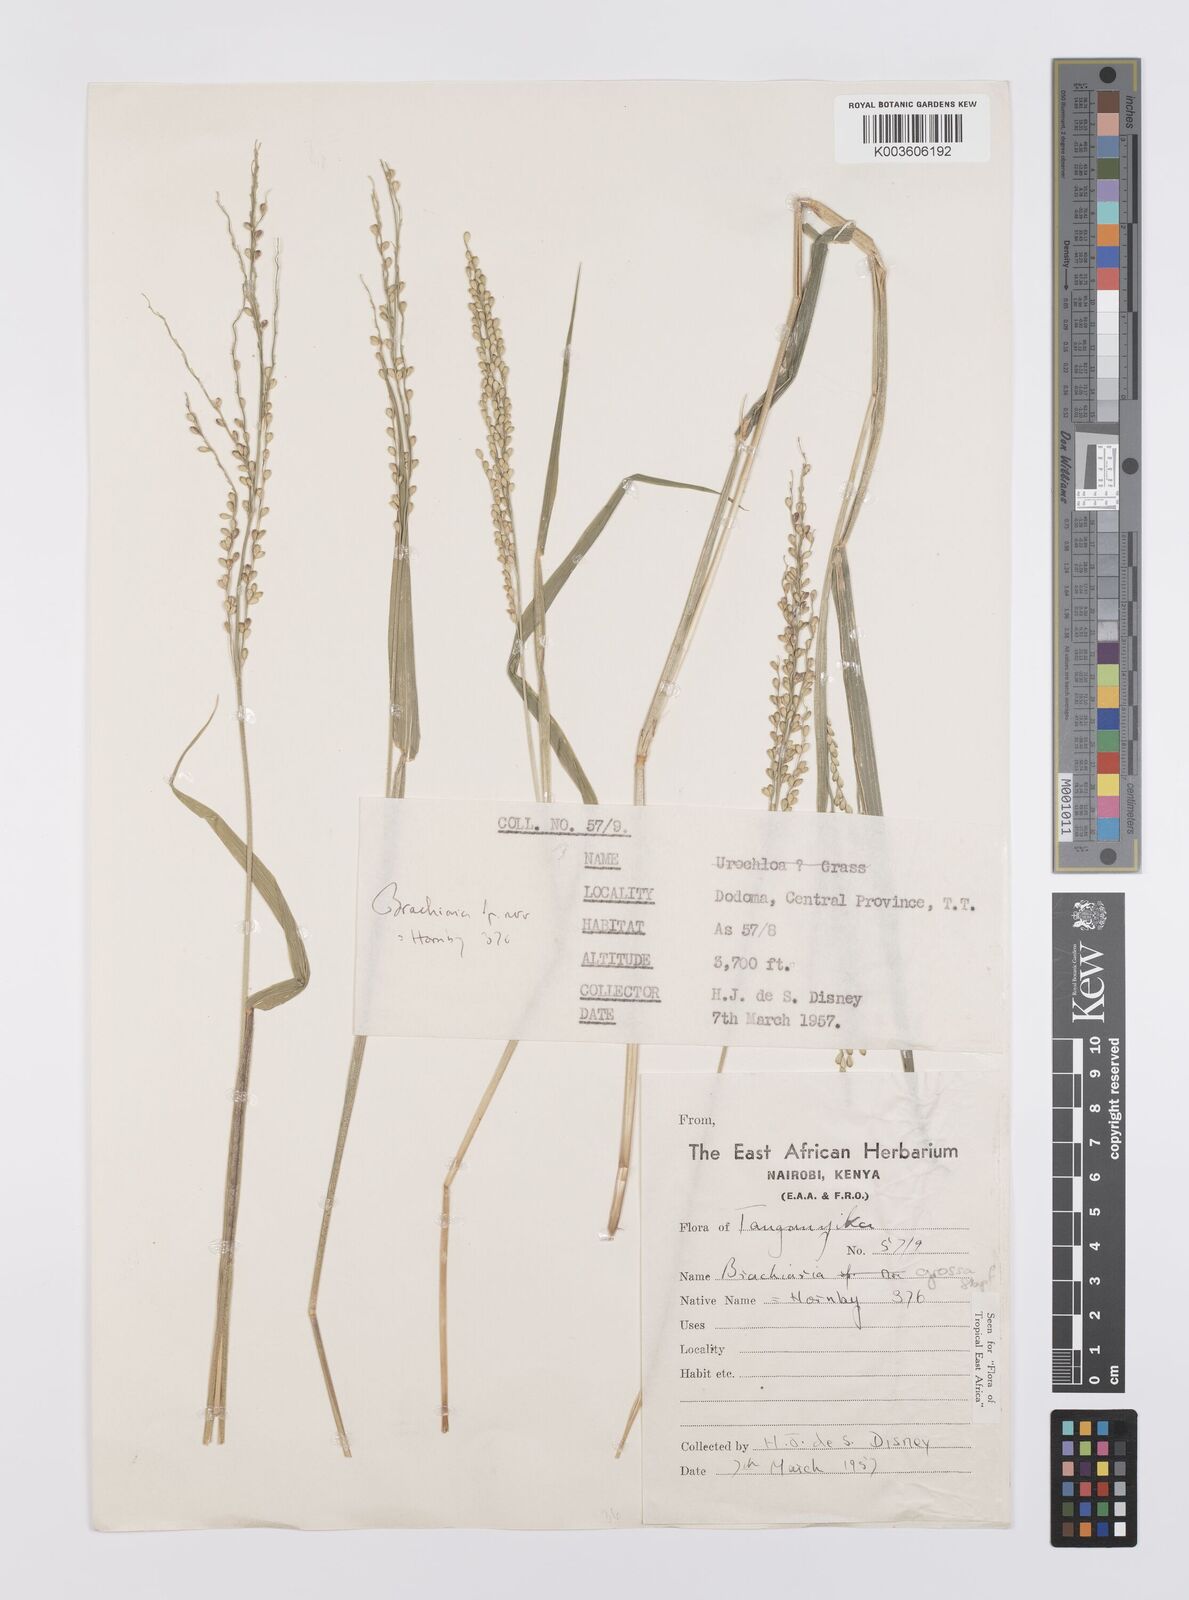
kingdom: Plantae
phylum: Tracheophyta
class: Liliopsida
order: Poales
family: Poaceae
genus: Urochloa
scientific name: Urochloa Brachiaria grossa
